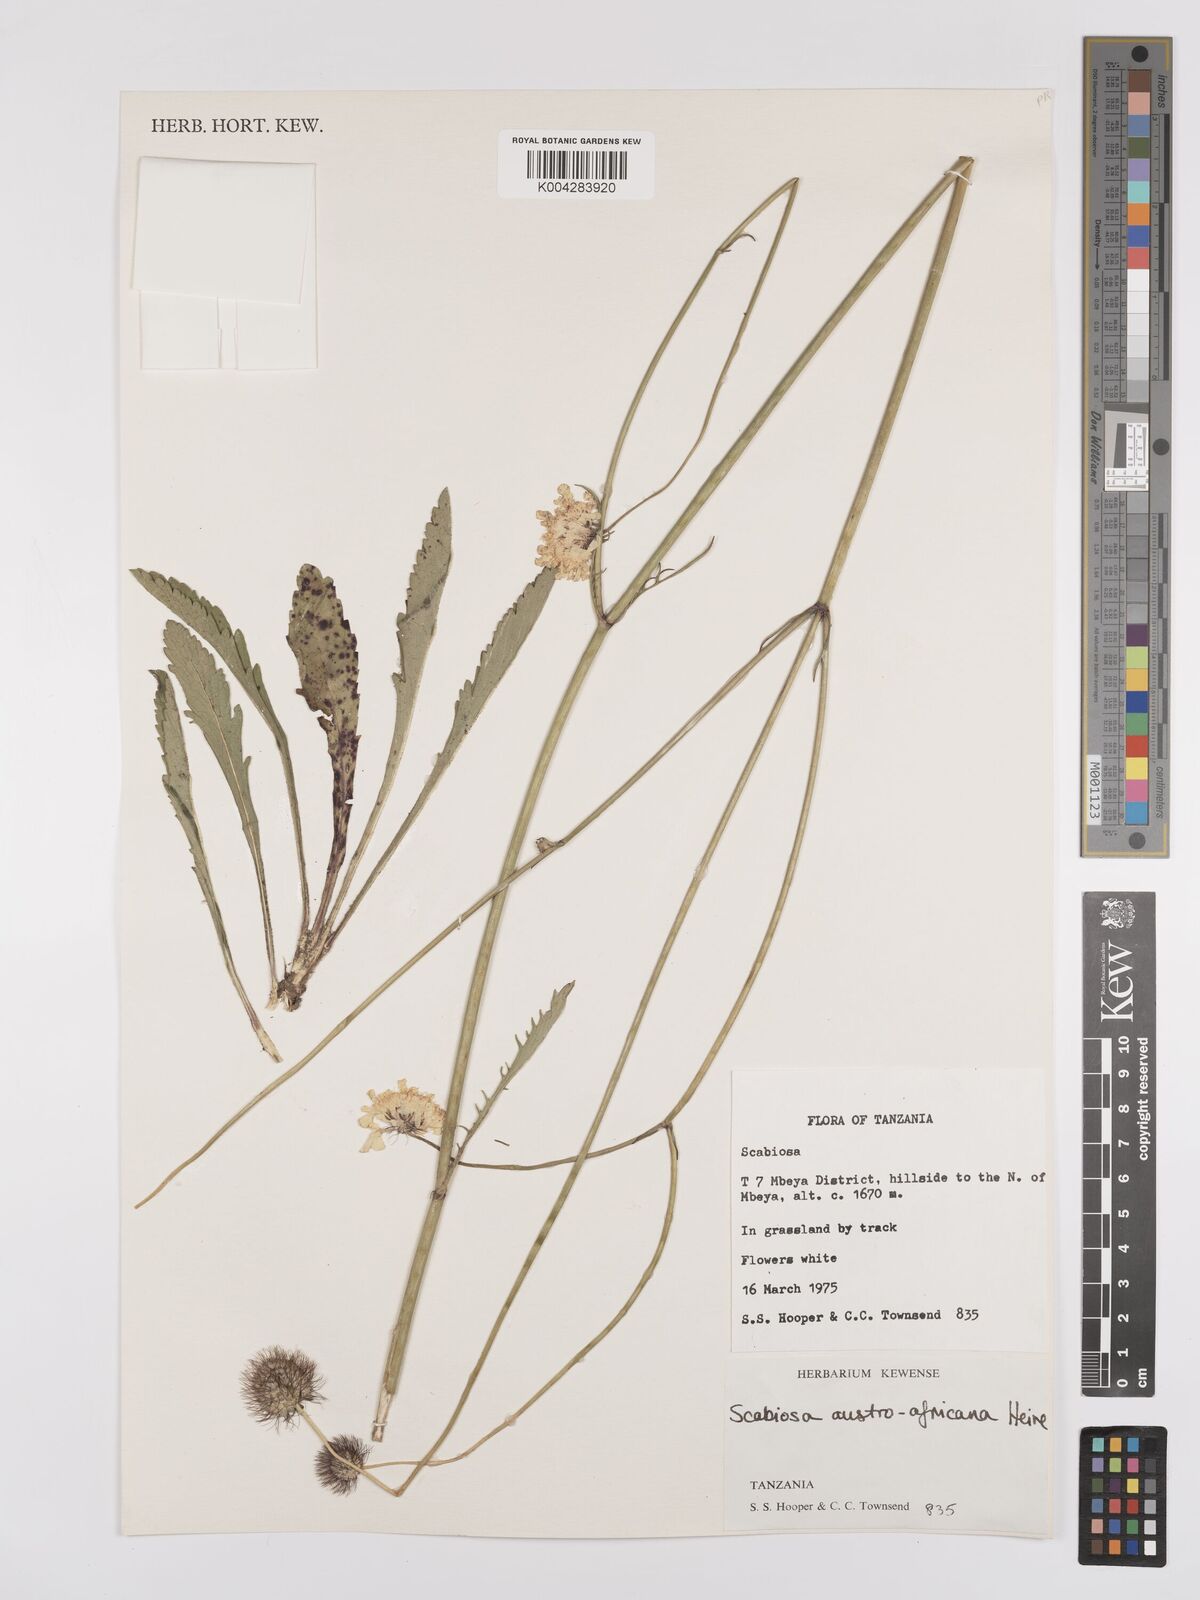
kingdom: Plantae
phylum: Tracheophyta
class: Magnoliopsida
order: Dipsacales
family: Caprifoliaceae
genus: Scabiosa
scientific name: Scabiosa austroafricana
